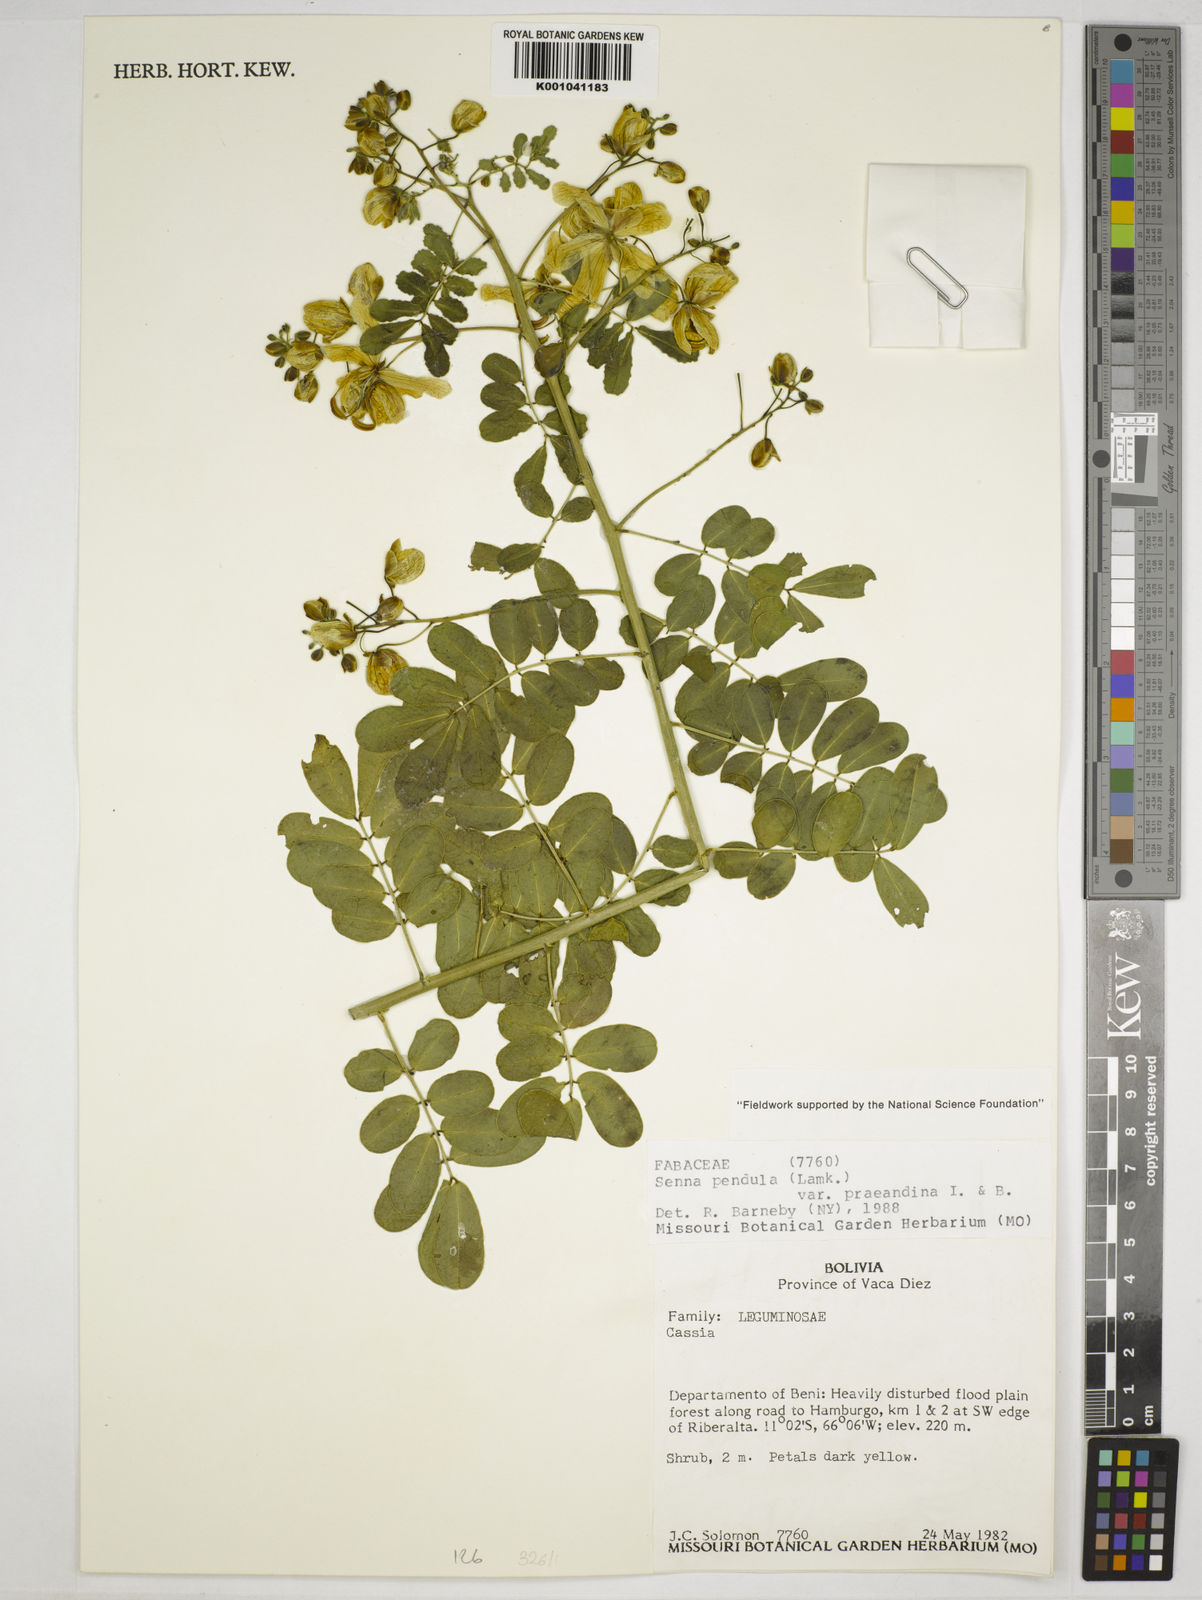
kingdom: Plantae
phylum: Tracheophyta
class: Magnoliopsida
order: Fabales
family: Fabaceae
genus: Senna
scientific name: Senna pendula
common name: Easter cassia
